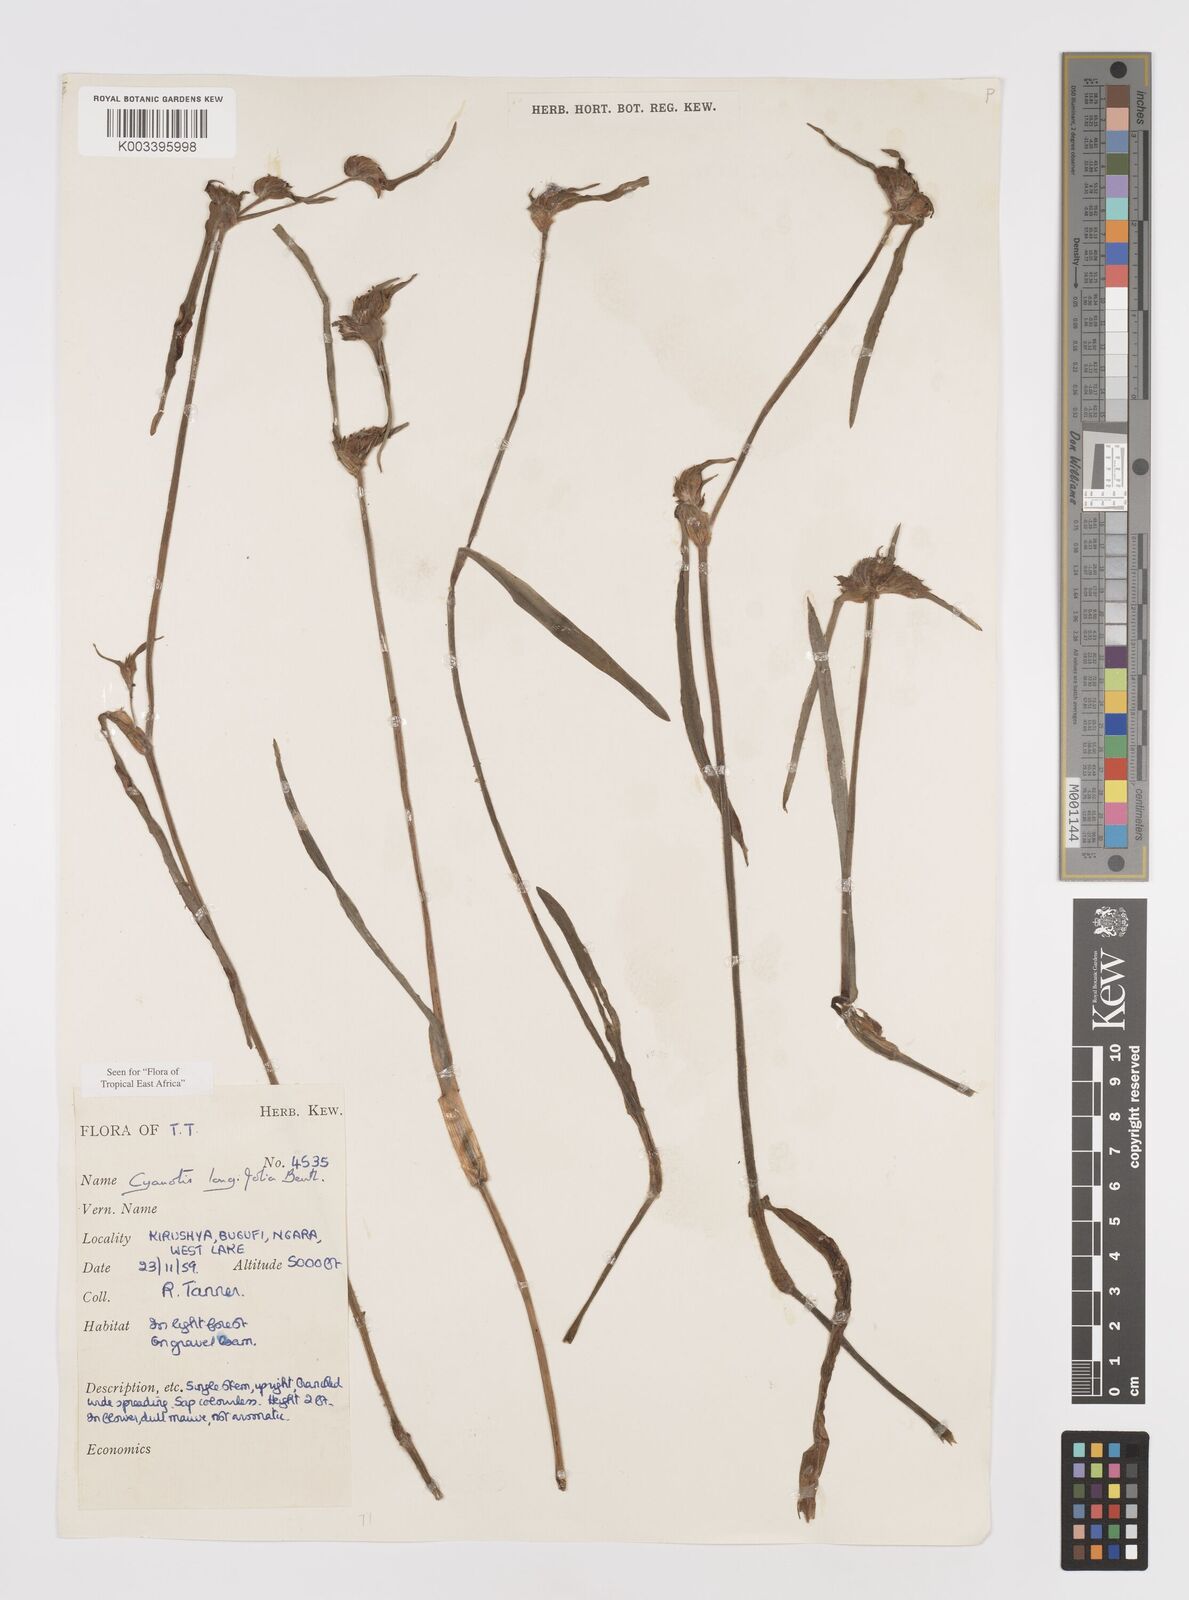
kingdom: Plantae
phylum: Tracheophyta
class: Liliopsida
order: Commelinales
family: Commelinaceae
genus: Cyanotis
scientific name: Cyanotis longifolia
